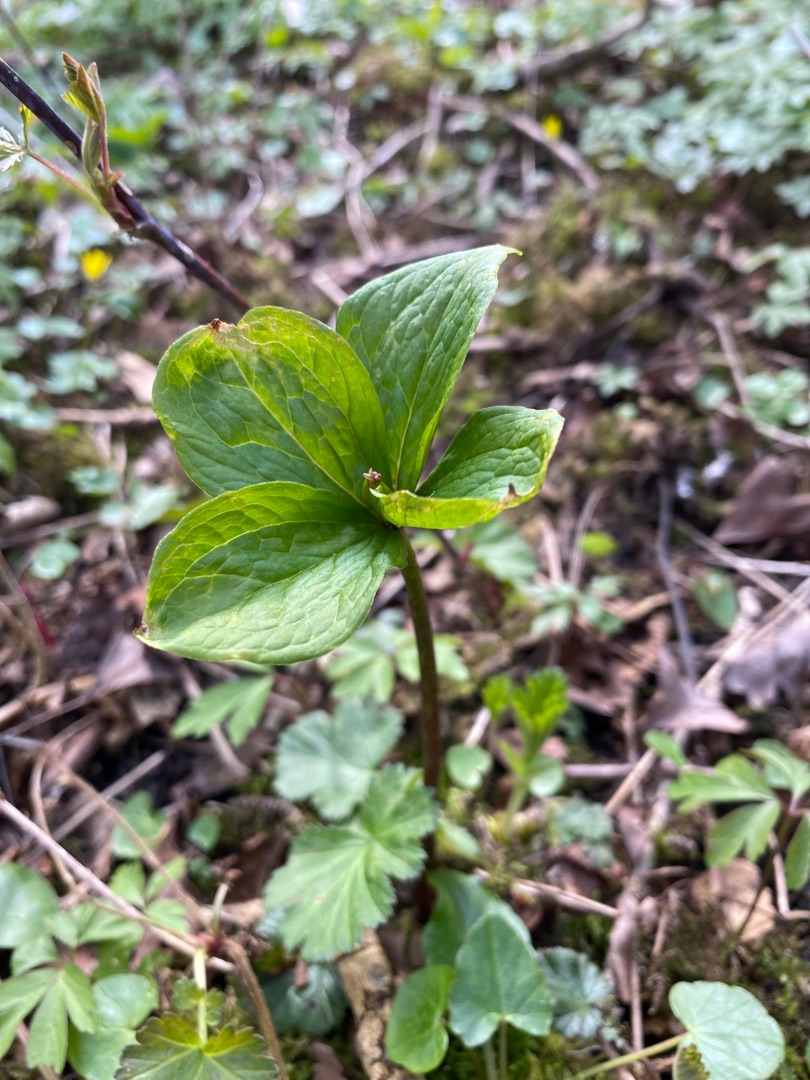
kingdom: Plantae
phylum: Tracheophyta
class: Liliopsida
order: Liliales
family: Melanthiaceae
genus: Paris
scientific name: Paris quadrifolia
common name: Firblad
